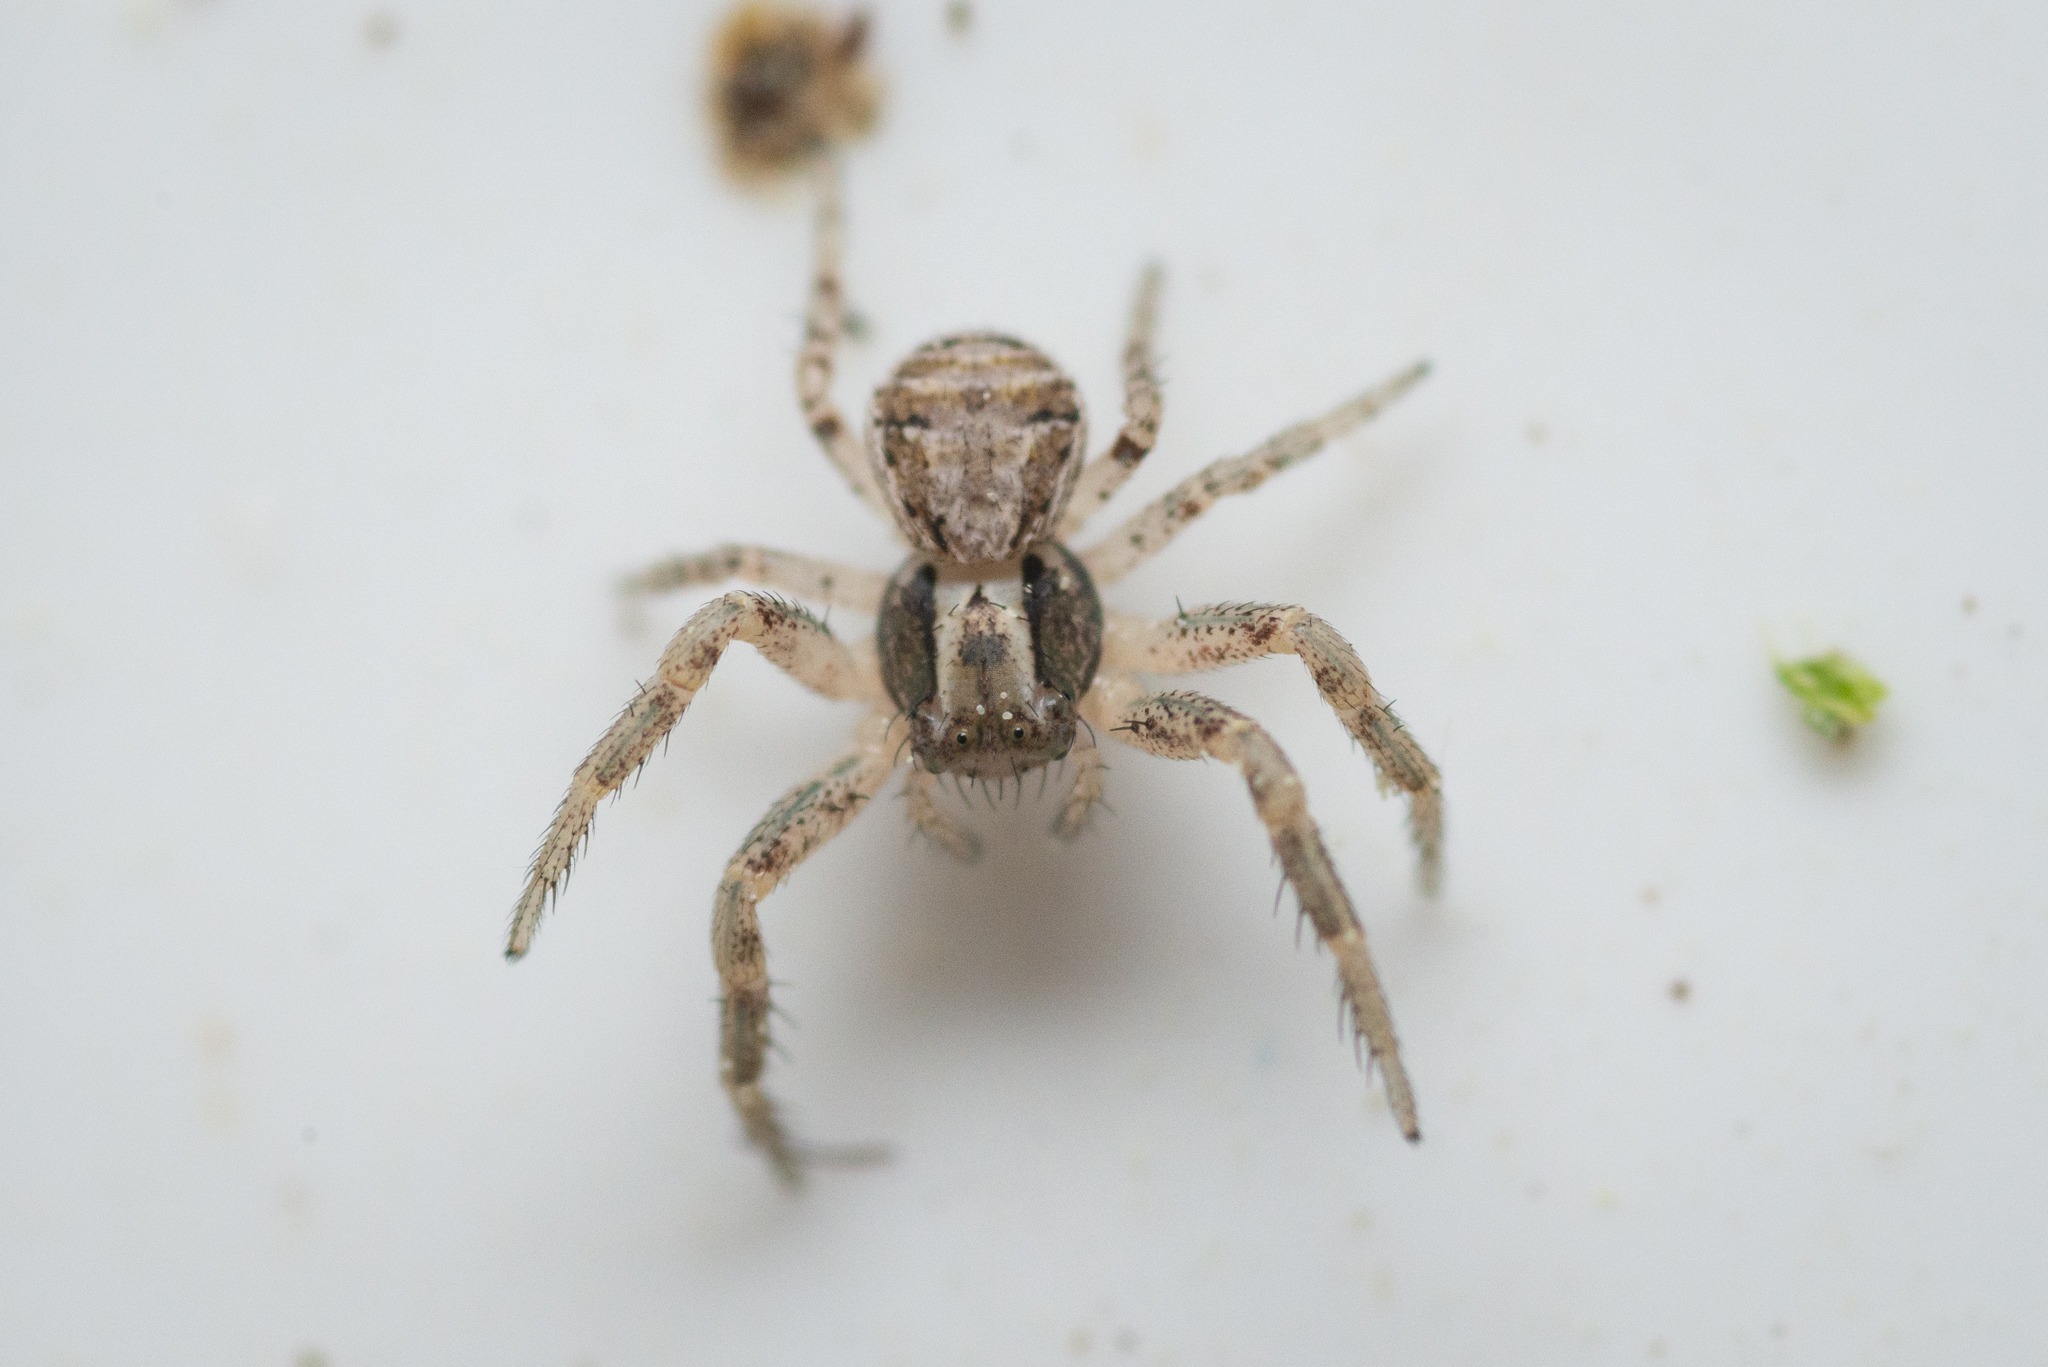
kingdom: Animalia
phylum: Arthropoda
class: Arachnida
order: Araneae
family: Thomisidae
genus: Xysticus
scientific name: Xysticus
